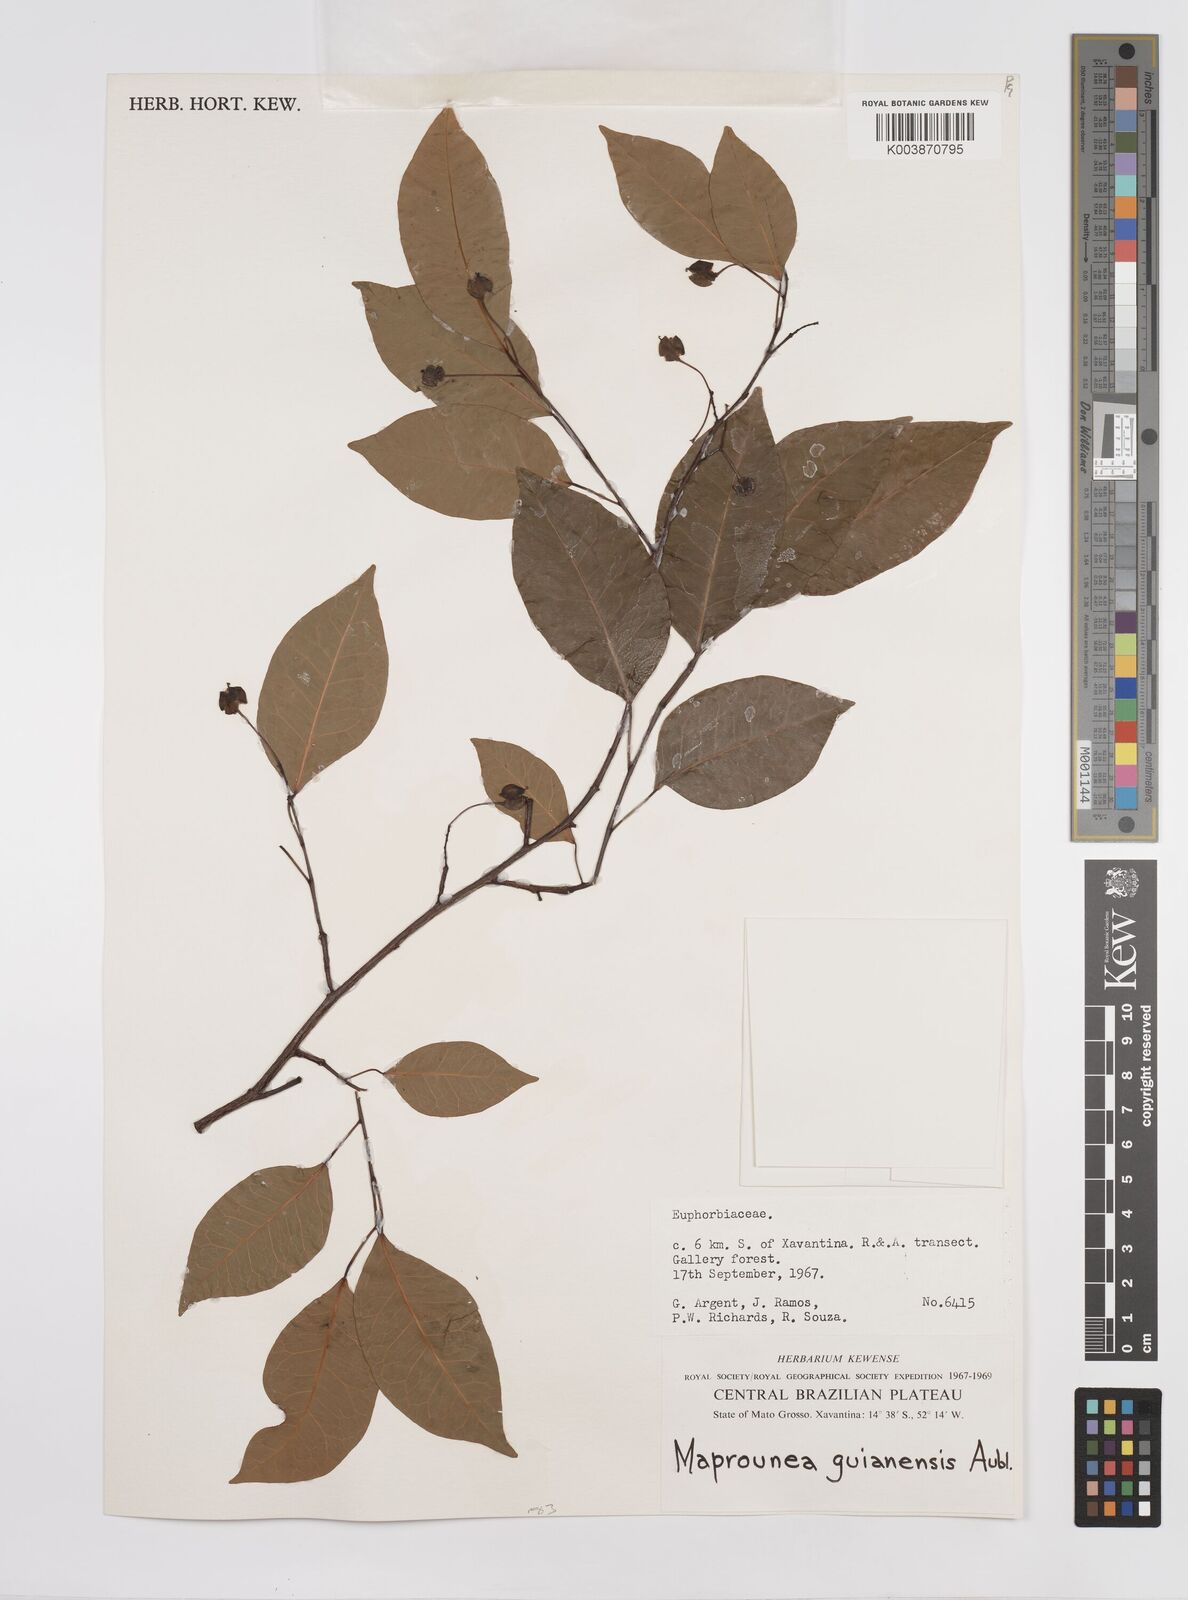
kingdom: Plantae
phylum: Tracheophyta
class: Magnoliopsida
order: Malpighiales
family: Euphorbiaceae
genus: Maprounea
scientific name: Maprounea guianensis
